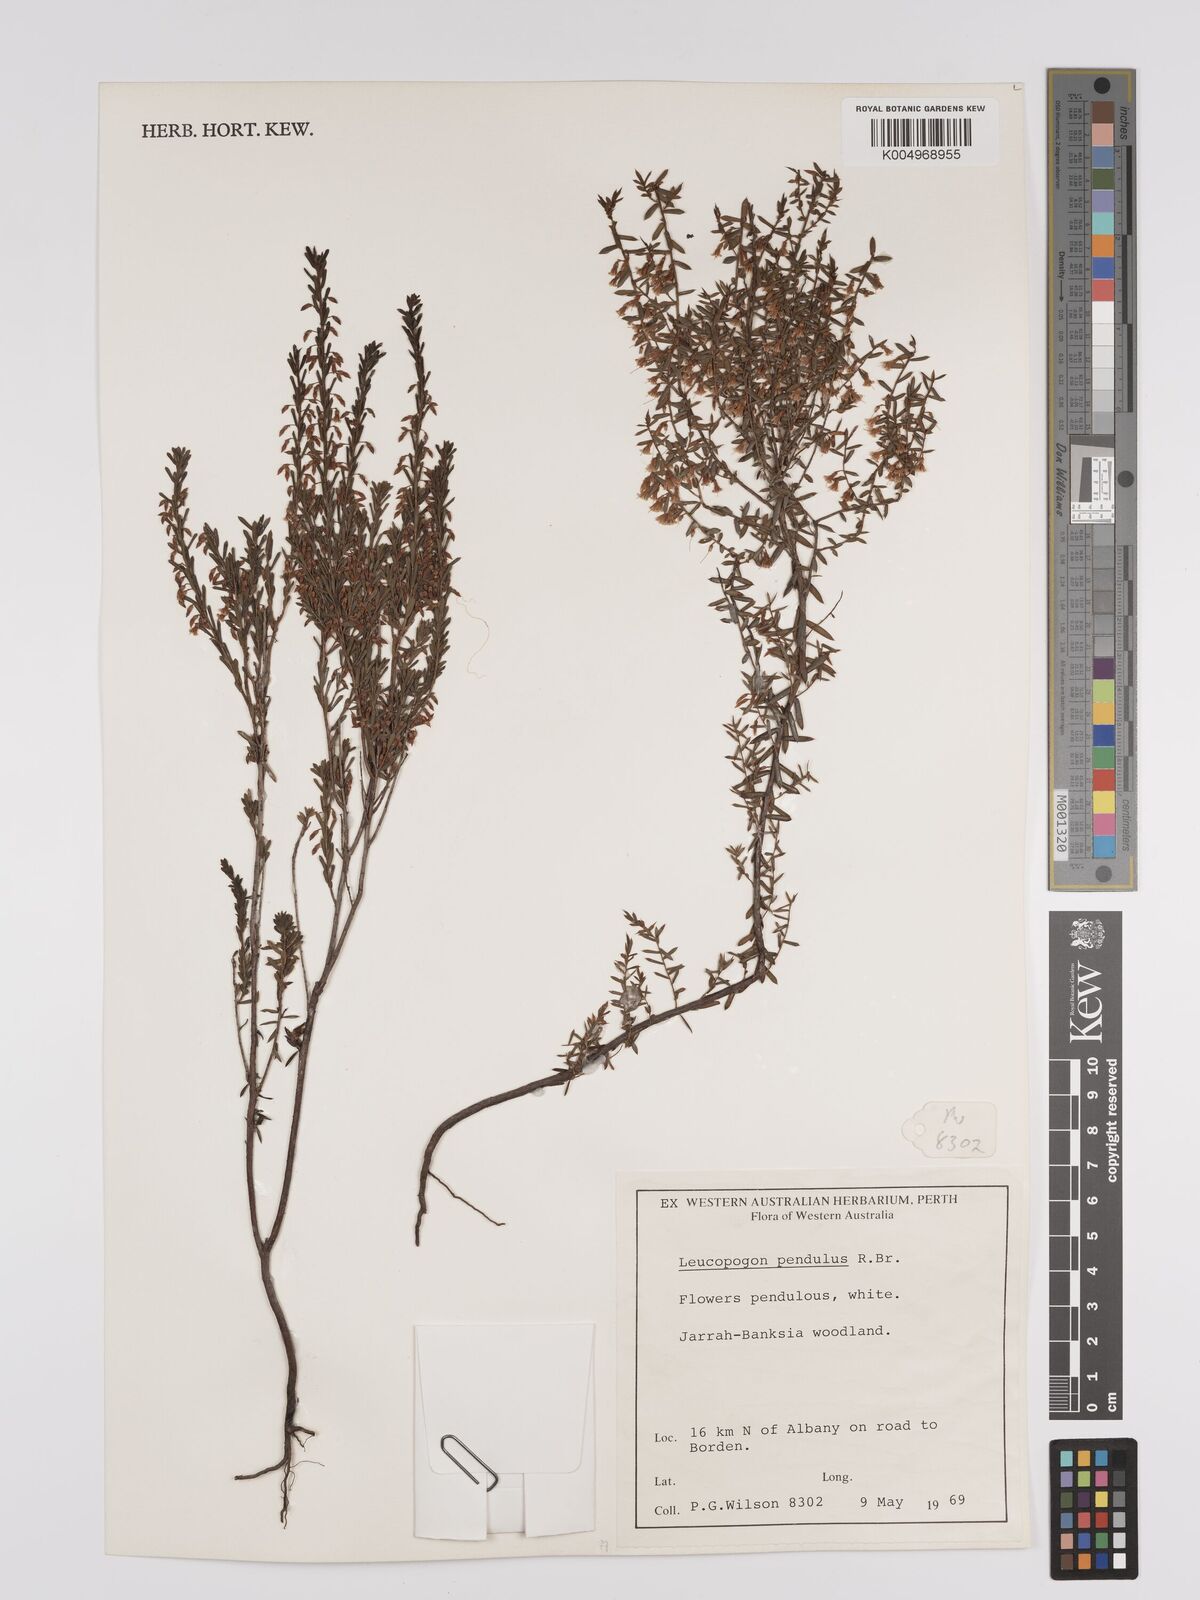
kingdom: Plantae
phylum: Tracheophyta
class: Magnoliopsida
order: Ericales
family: Ericaceae
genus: Styphelia
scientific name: Styphelia pendula
